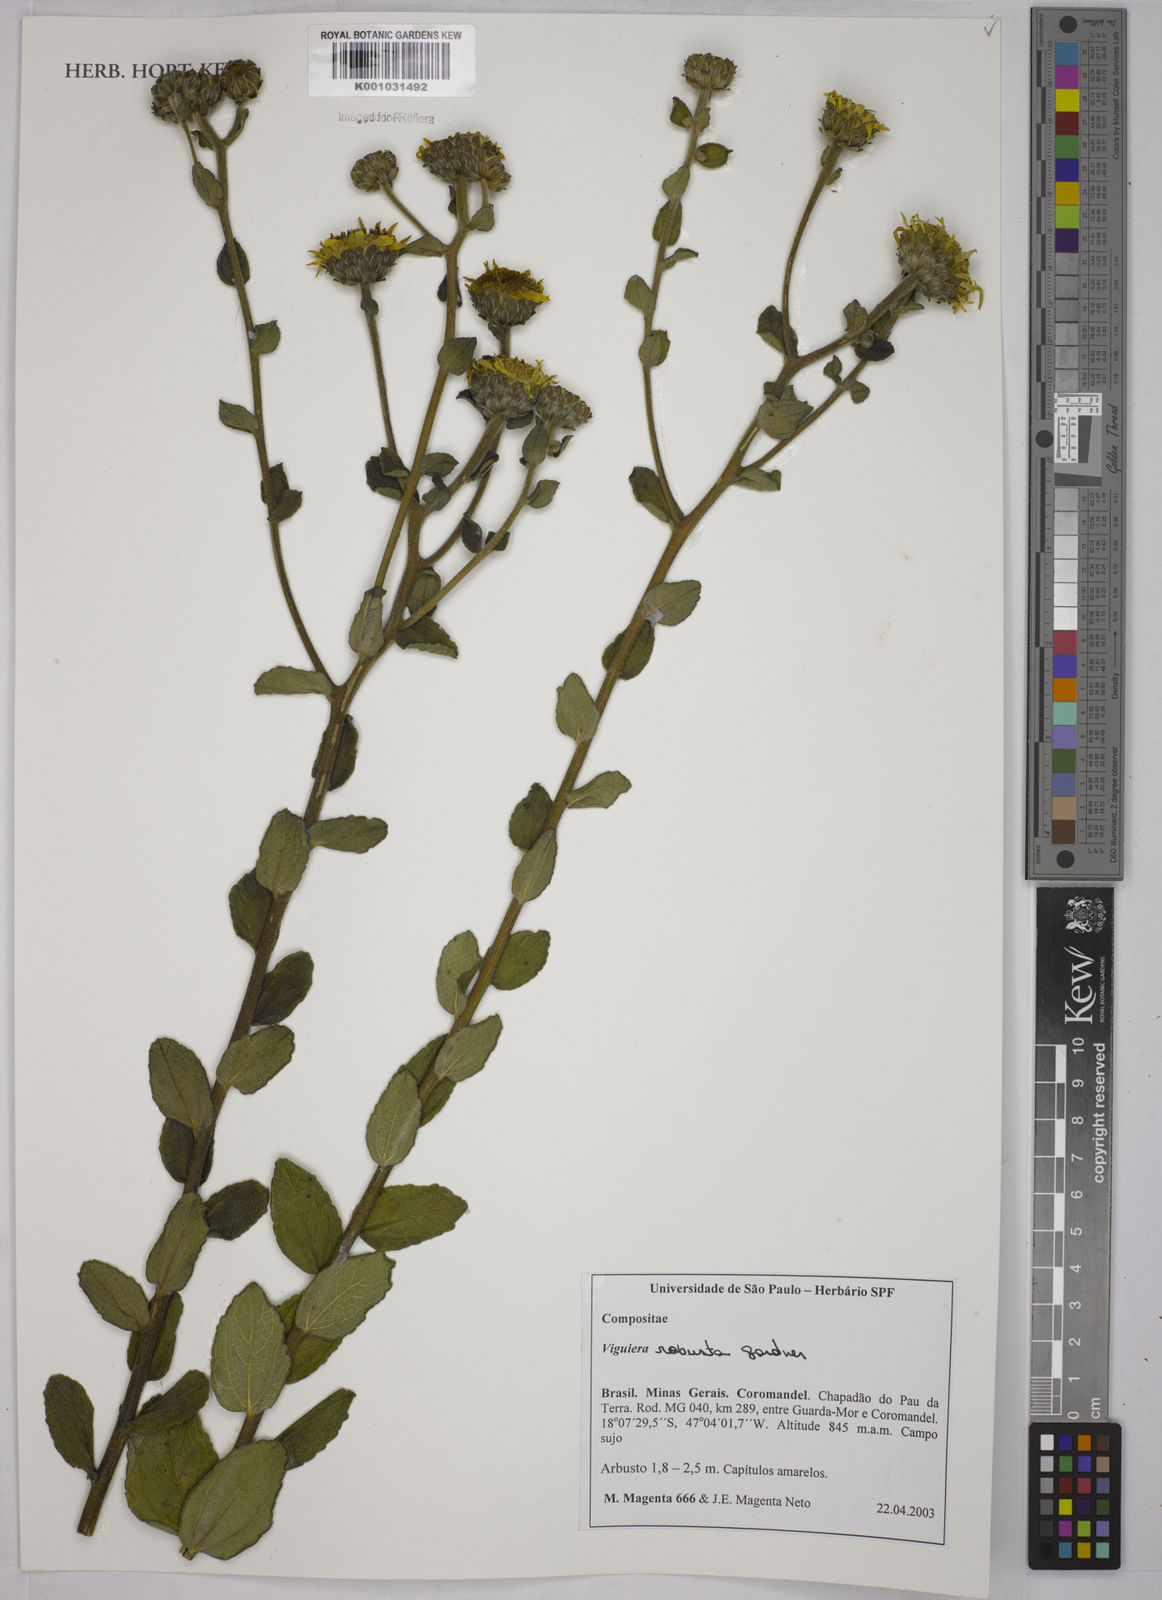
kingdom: Plantae
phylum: Tracheophyta
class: Magnoliopsida
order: Asterales
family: Asteraceae
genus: Aldama
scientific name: Aldama robusta
